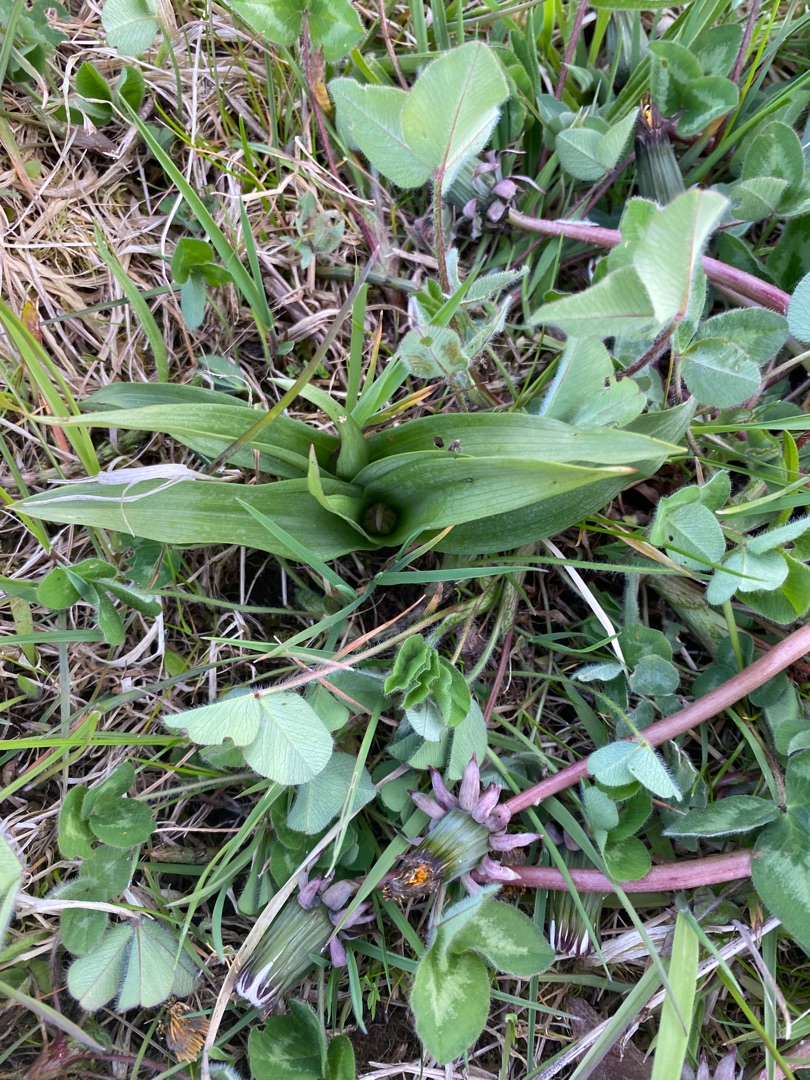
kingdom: Plantae
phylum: Tracheophyta
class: Liliopsida
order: Asparagales
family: Orchidaceae
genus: Dactylorhiza
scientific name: Dactylorhiza majalis
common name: Maj-gøgeurt
